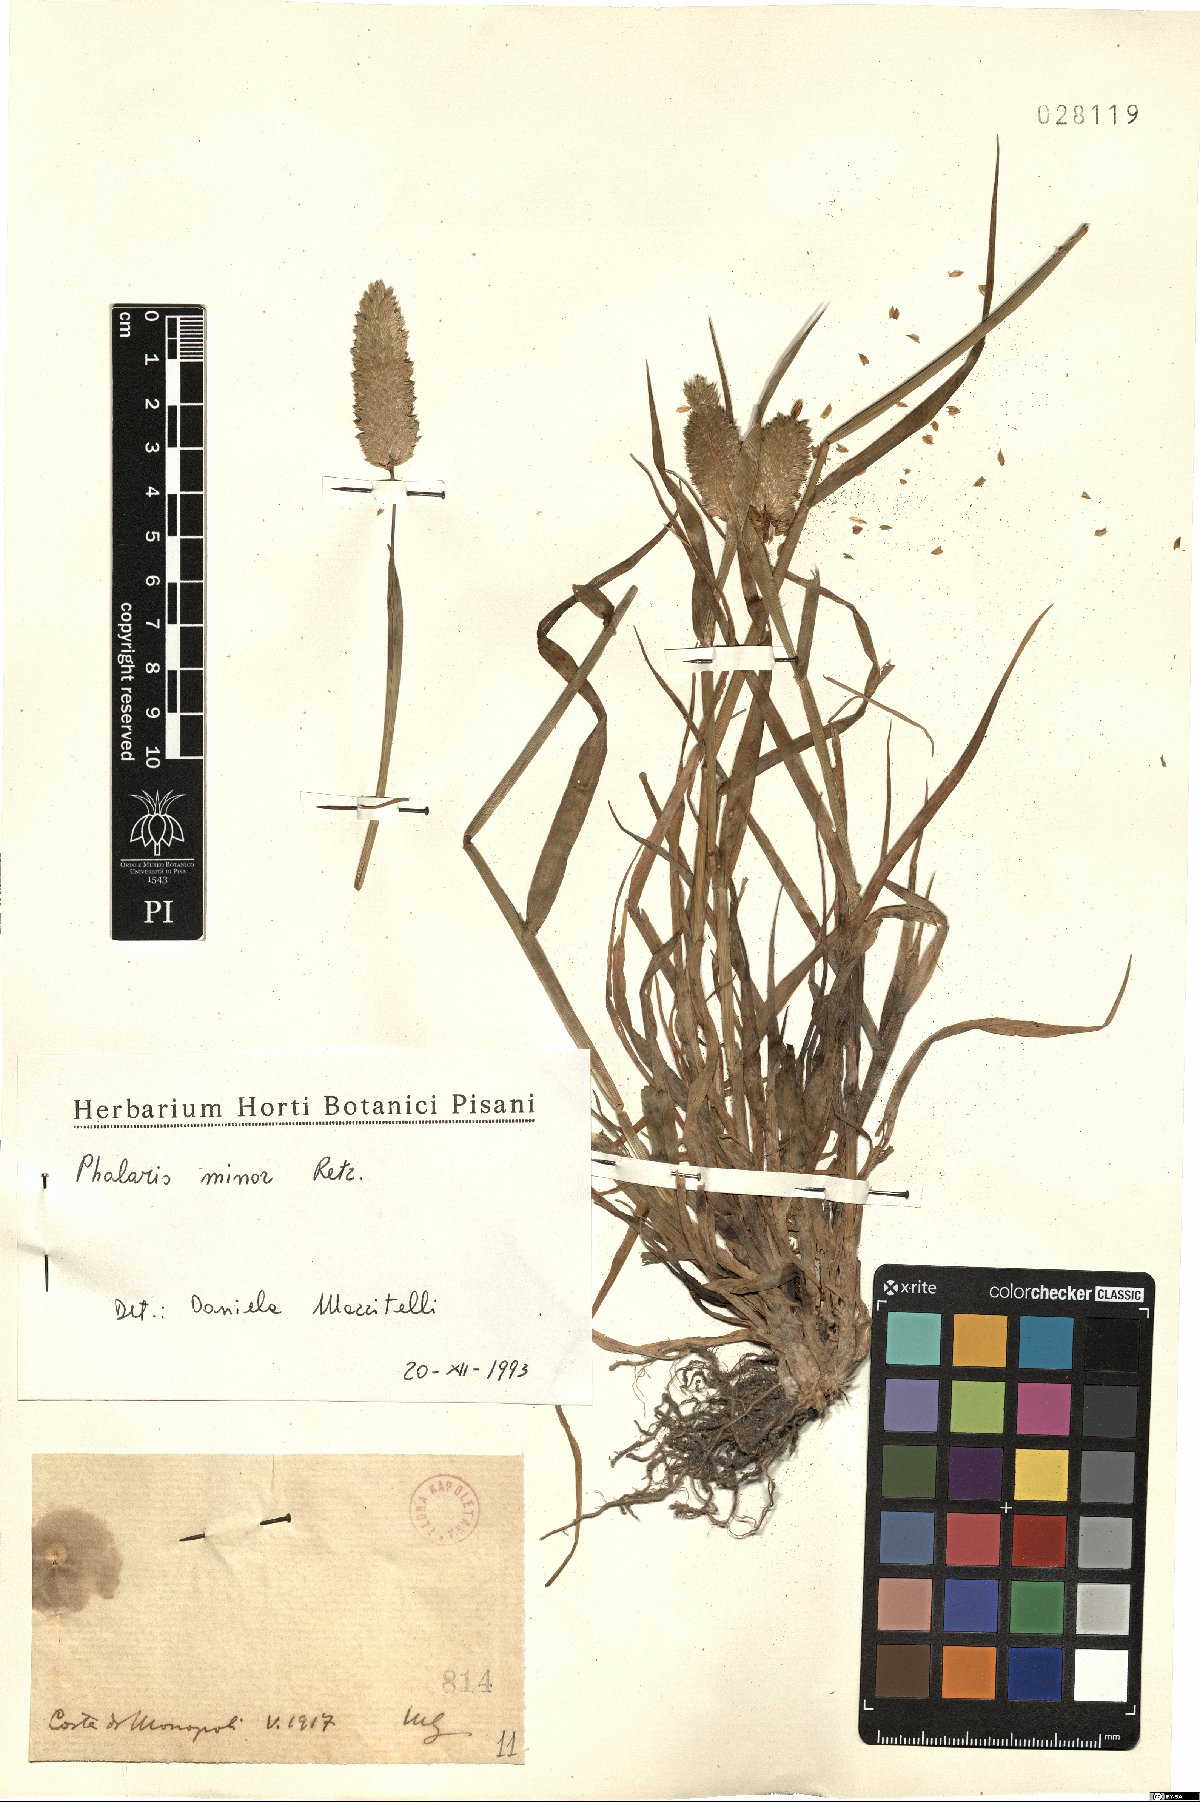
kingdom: Plantae
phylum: Tracheophyta
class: Liliopsida
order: Poales
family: Poaceae
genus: Phalaris
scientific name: Phalaris minor
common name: Littleseed canarygrass
